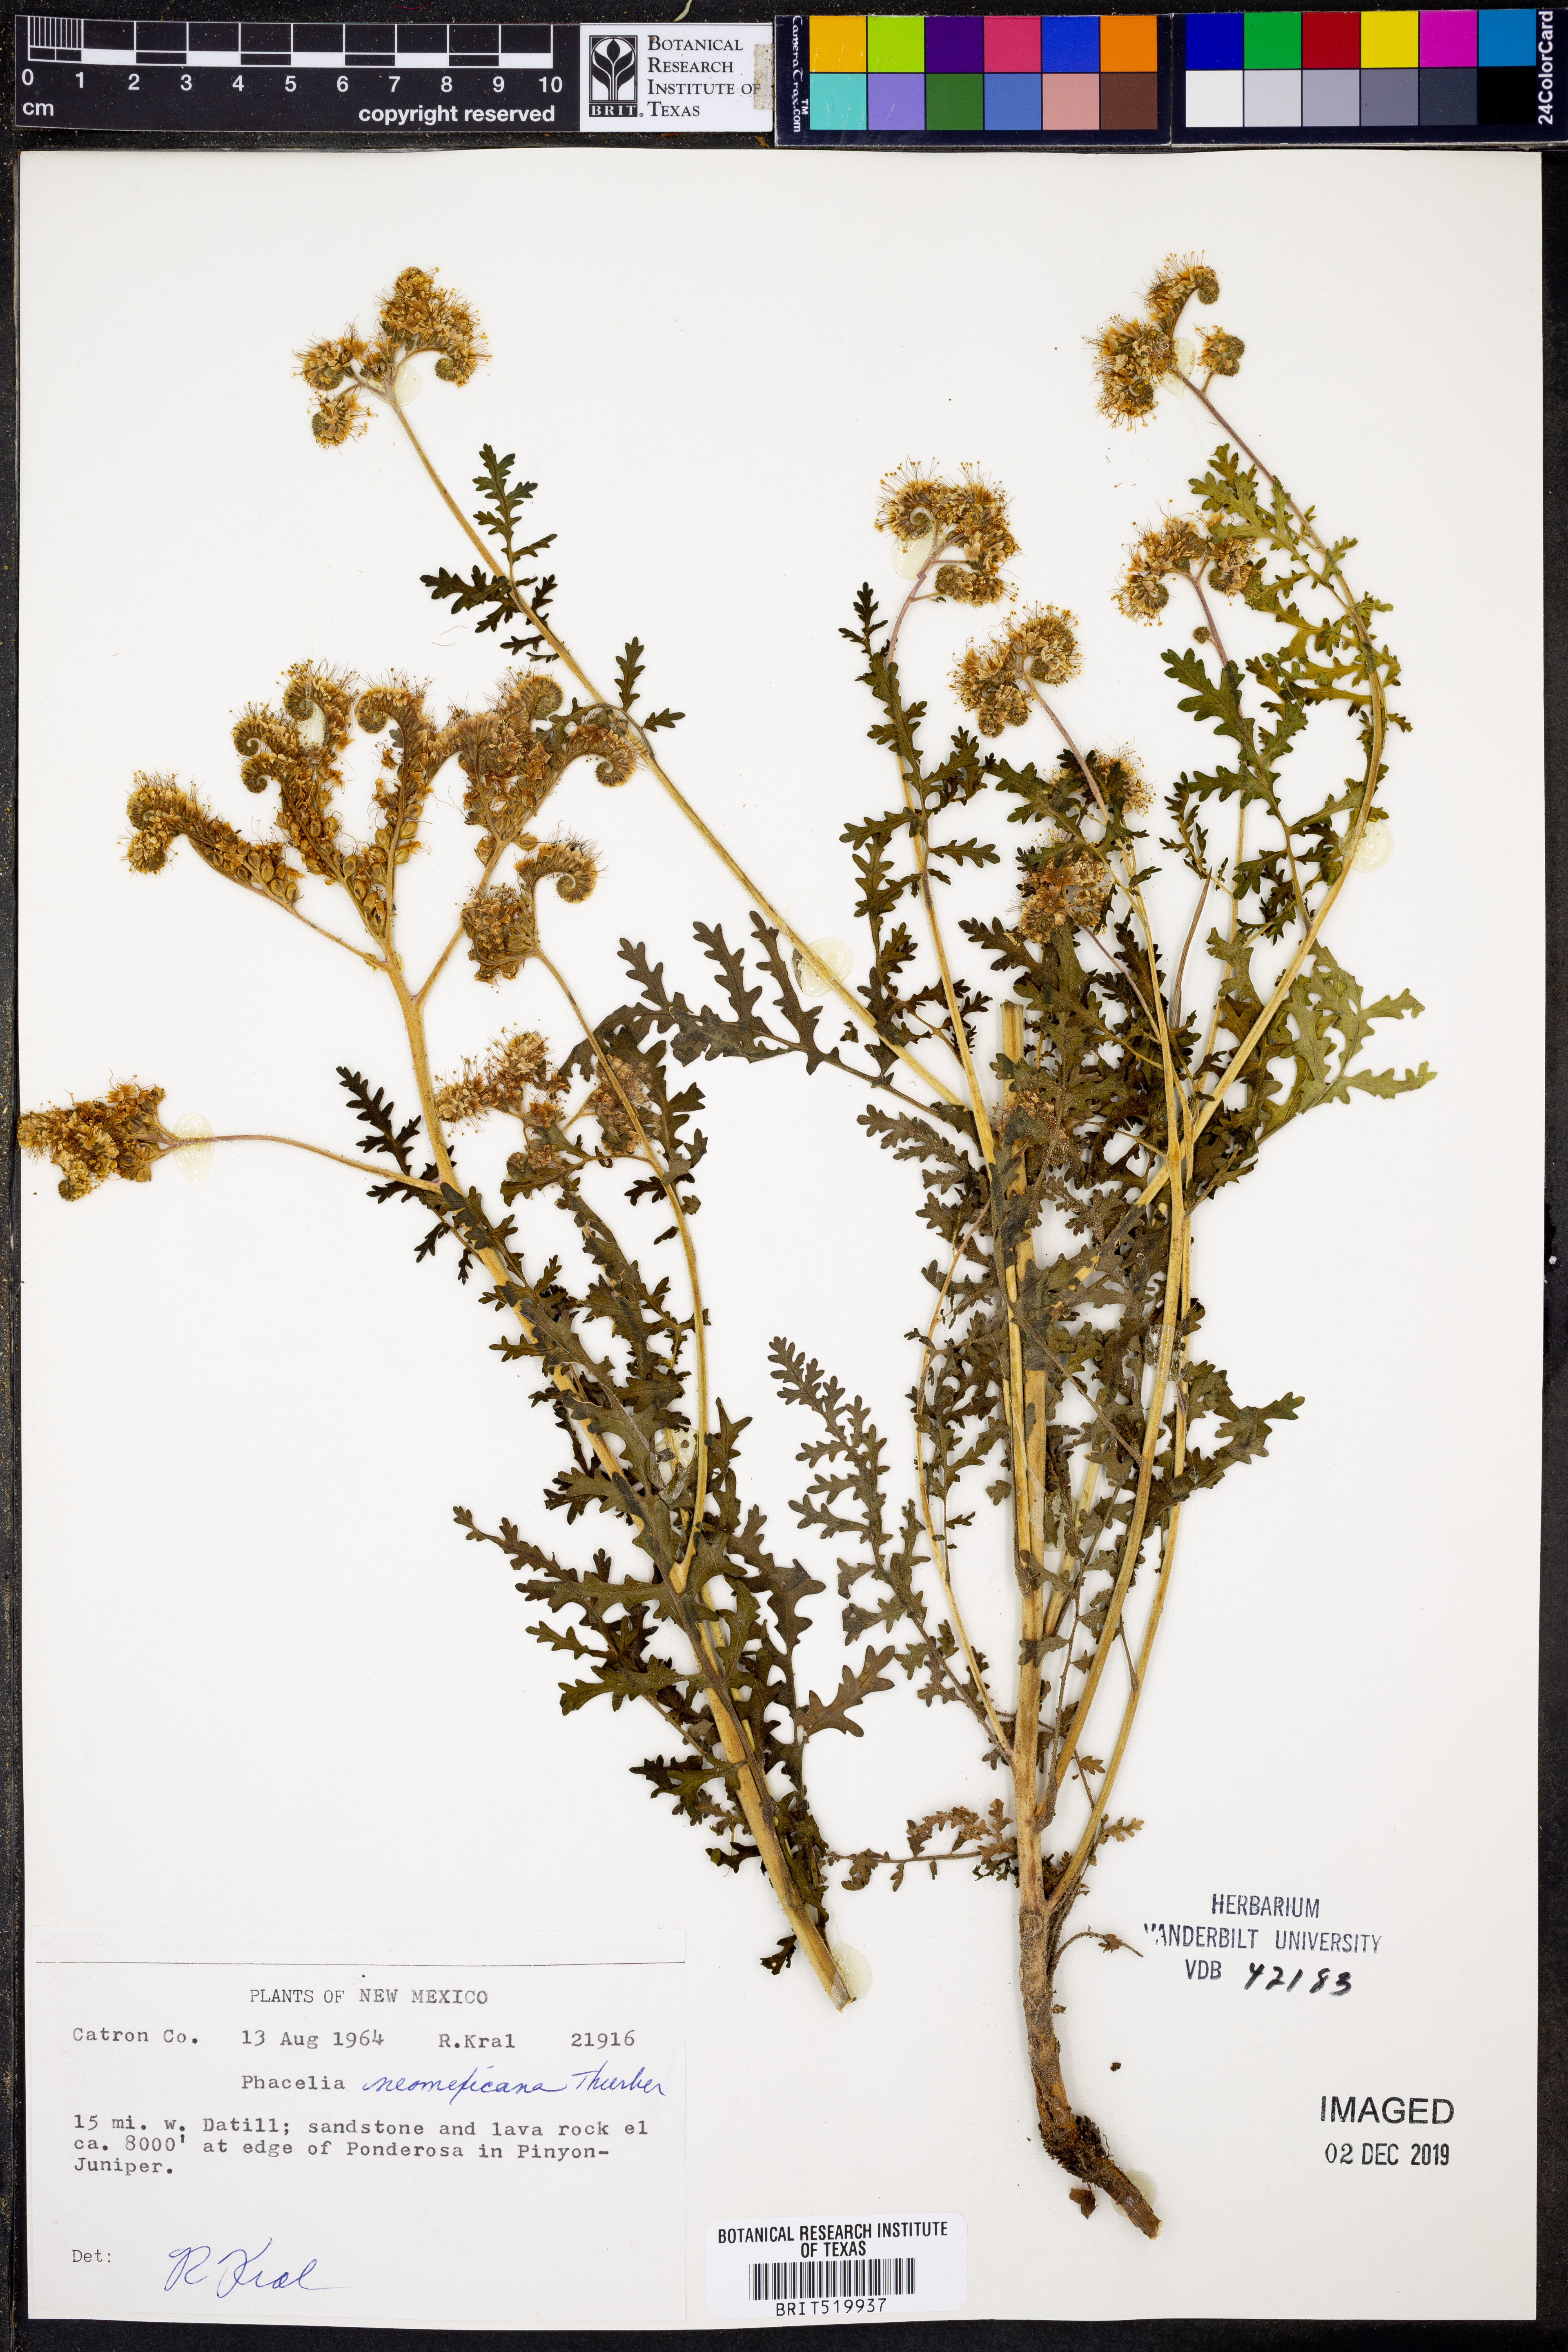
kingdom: Plantae
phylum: Tracheophyta
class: Magnoliopsida
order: Boraginales
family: Hydrophyllaceae
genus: Phacelia
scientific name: Phacelia neomexicana
